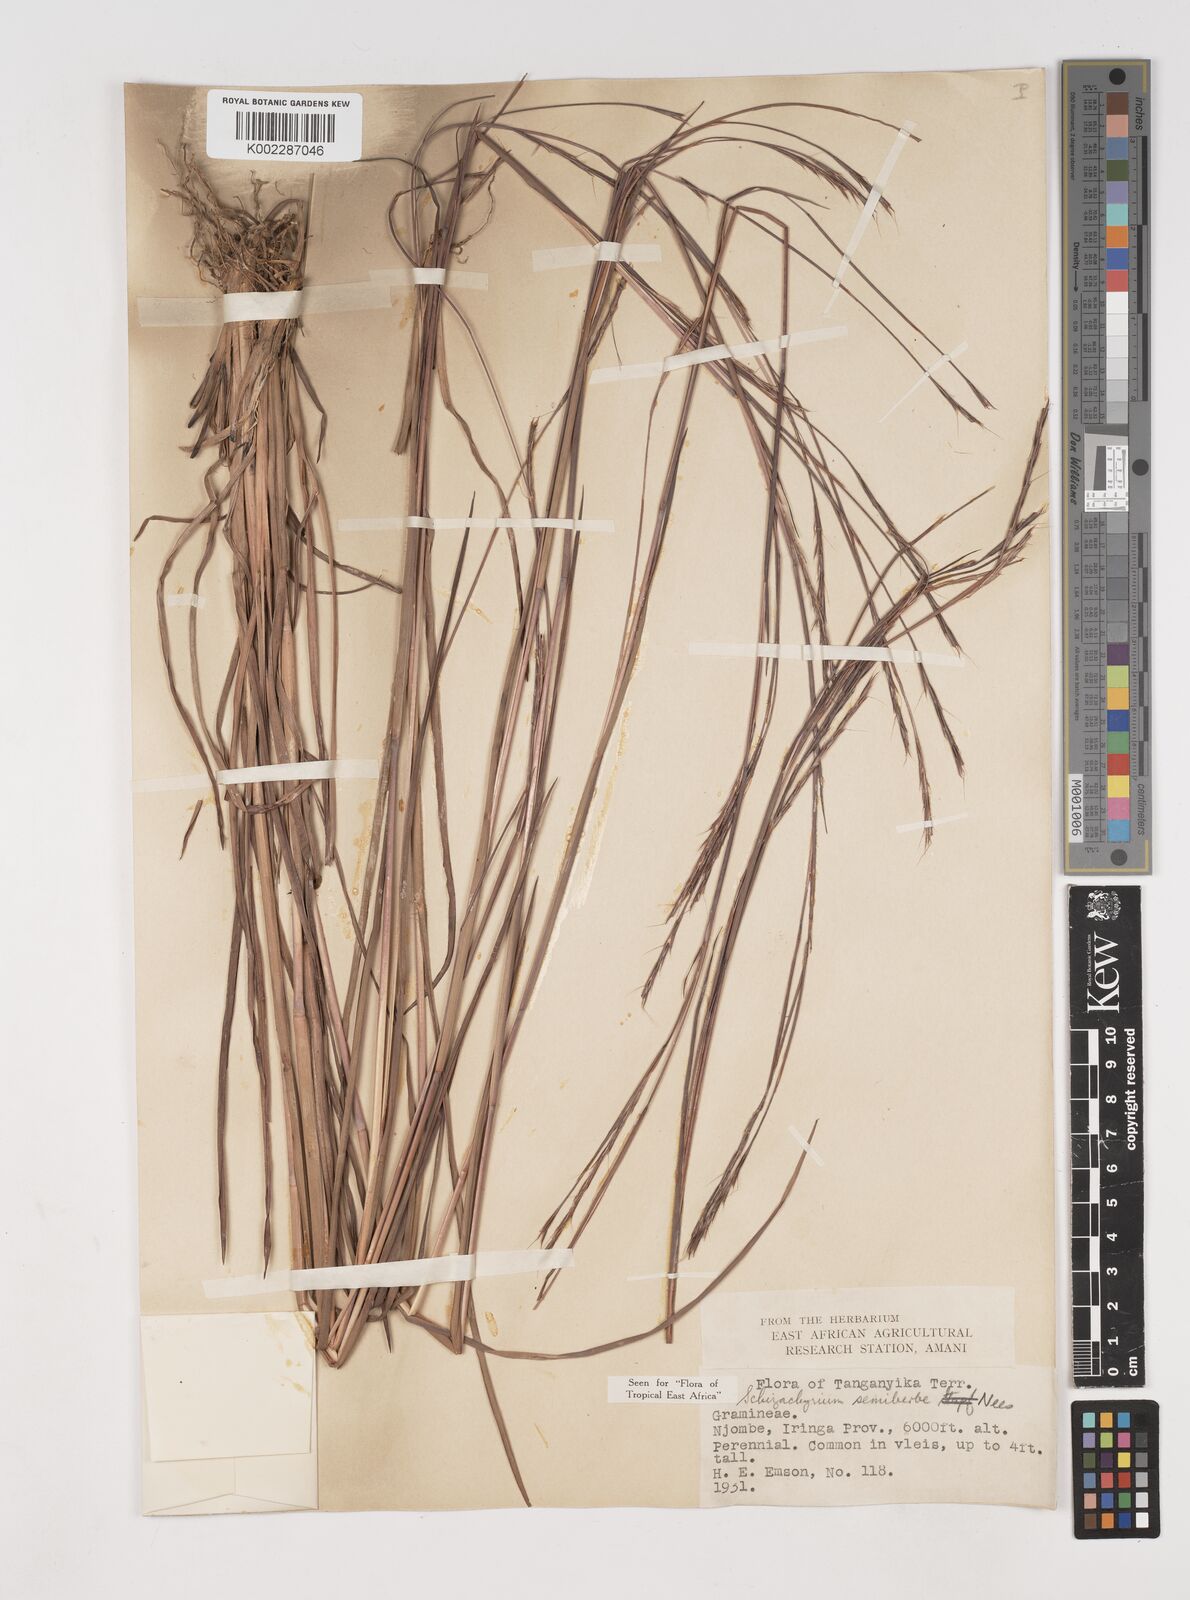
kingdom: Plantae
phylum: Tracheophyta
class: Liliopsida
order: Poales
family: Poaceae
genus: Schizachyrium
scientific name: Schizachyrium sanguineum
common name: Crimson bluestem
